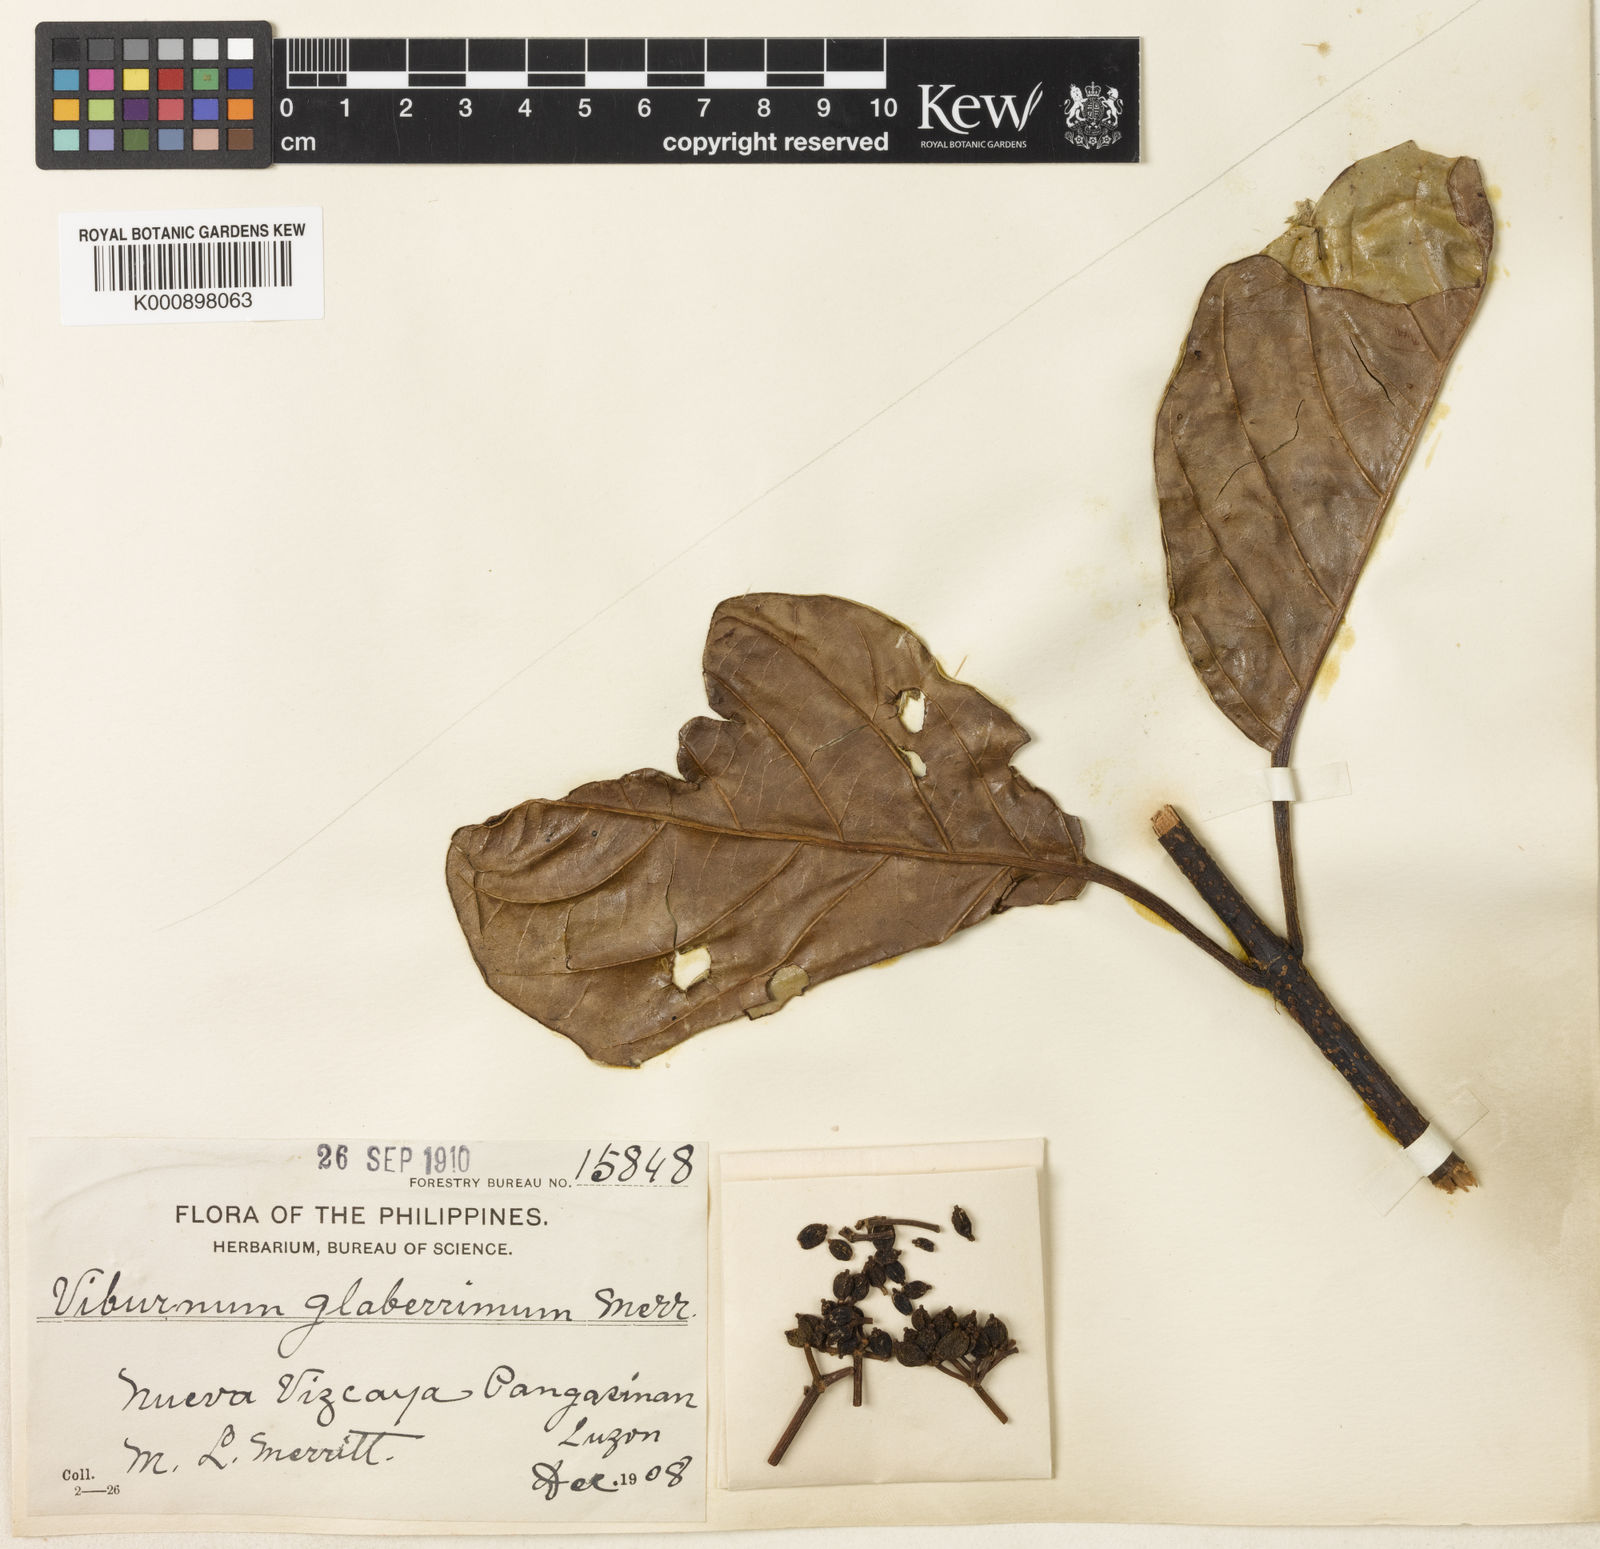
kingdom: Plantae
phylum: Tracheophyta
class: Magnoliopsida
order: Dipsacales
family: Viburnaceae
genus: Viburnum
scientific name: Viburnum glaberrimum
